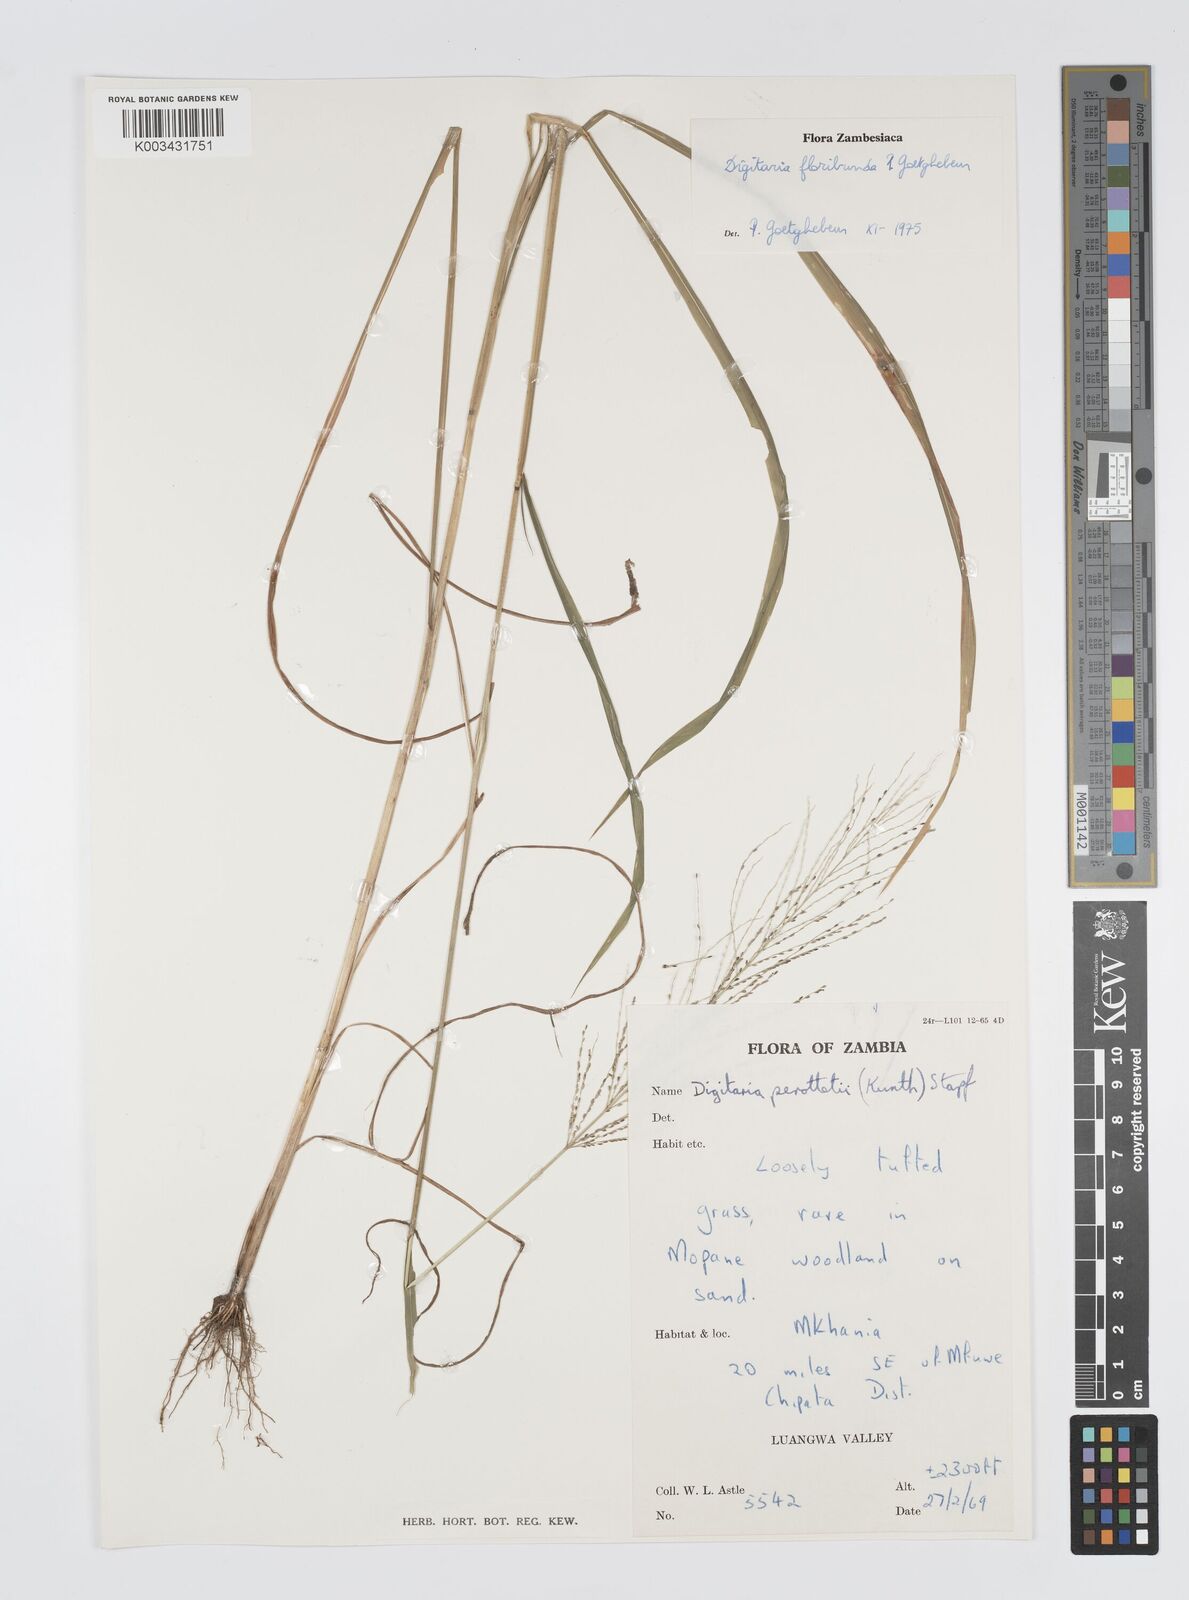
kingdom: Plantae
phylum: Tracheophyta
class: Liliopsida
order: Poales
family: Poaceae
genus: Digitaria
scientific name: Digitaria perrottetii
